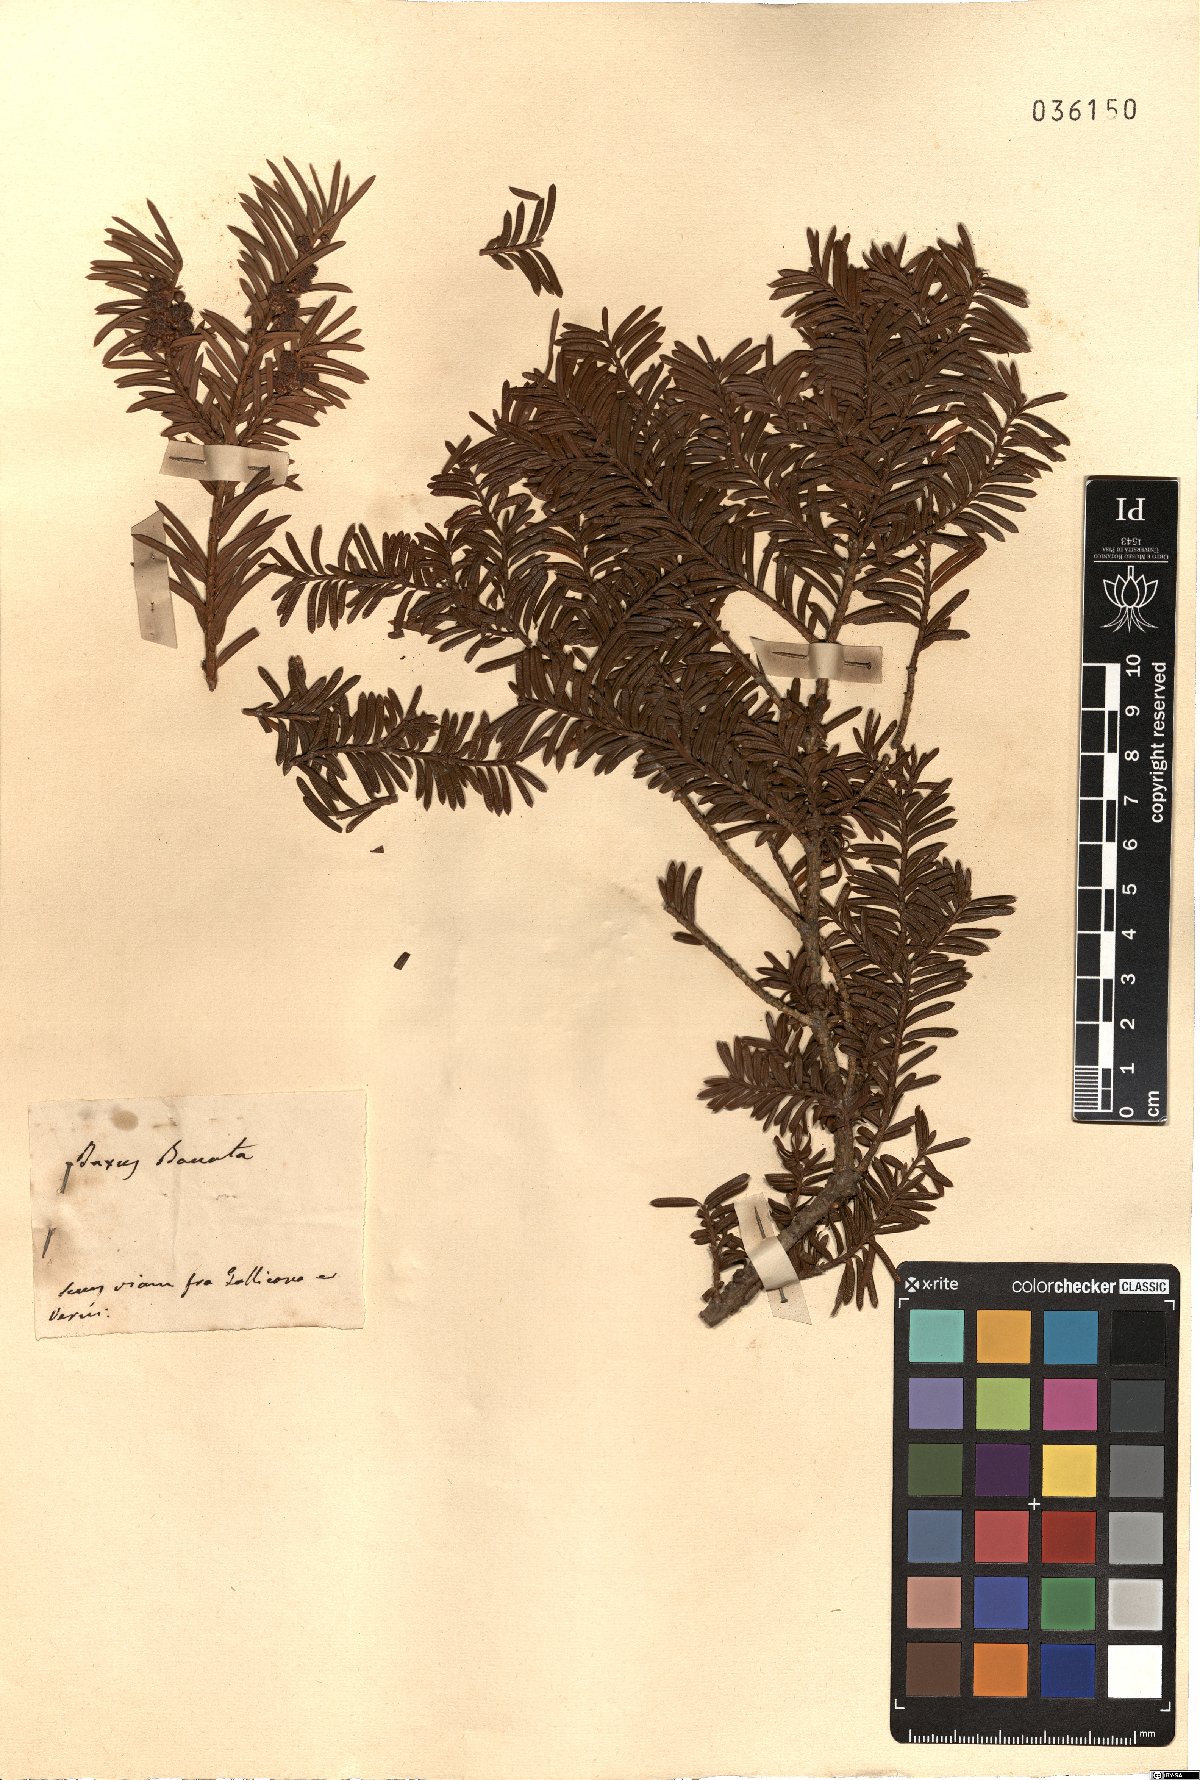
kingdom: Plantae
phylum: Tracheophyta
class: Pinopsida
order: Pinales
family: Taxaceae
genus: Taxus
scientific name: Taxus baccata
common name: Yew
